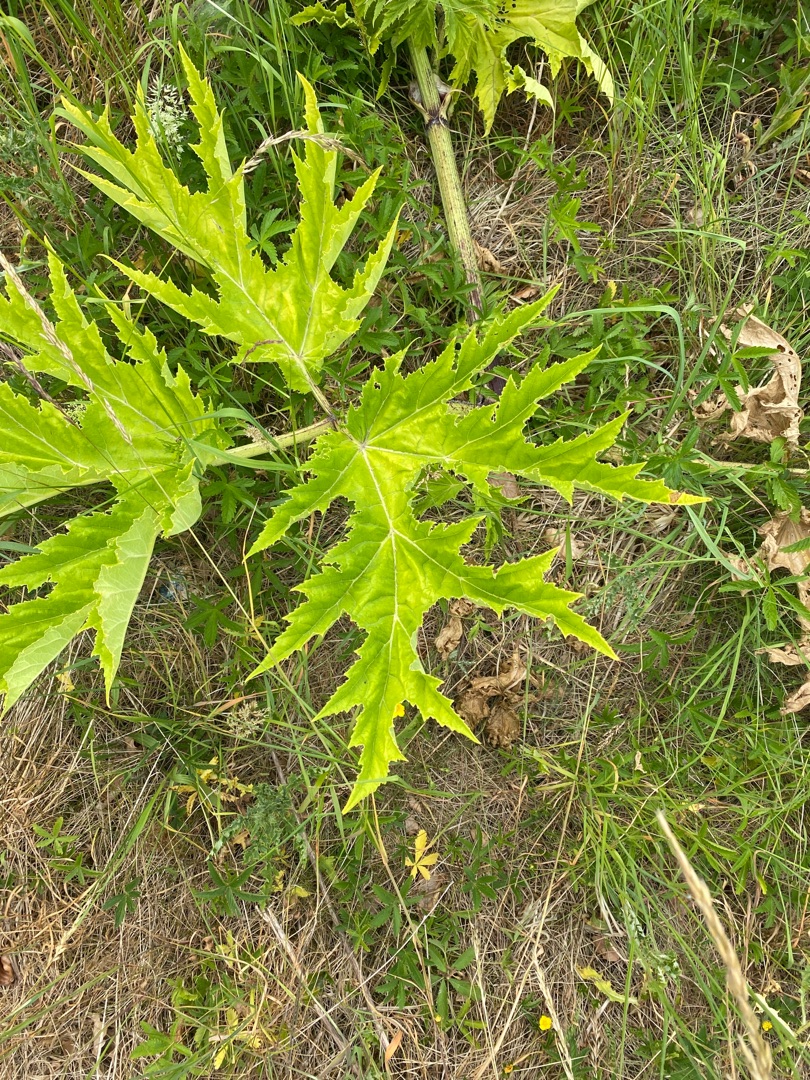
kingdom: Plantae
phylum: Tracheophyta
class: Magnoliopsida
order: Apiales
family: Apiaceae
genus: Heracleum
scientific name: Heracleum mantegazzianum
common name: Kæmpe-bjørneklo
